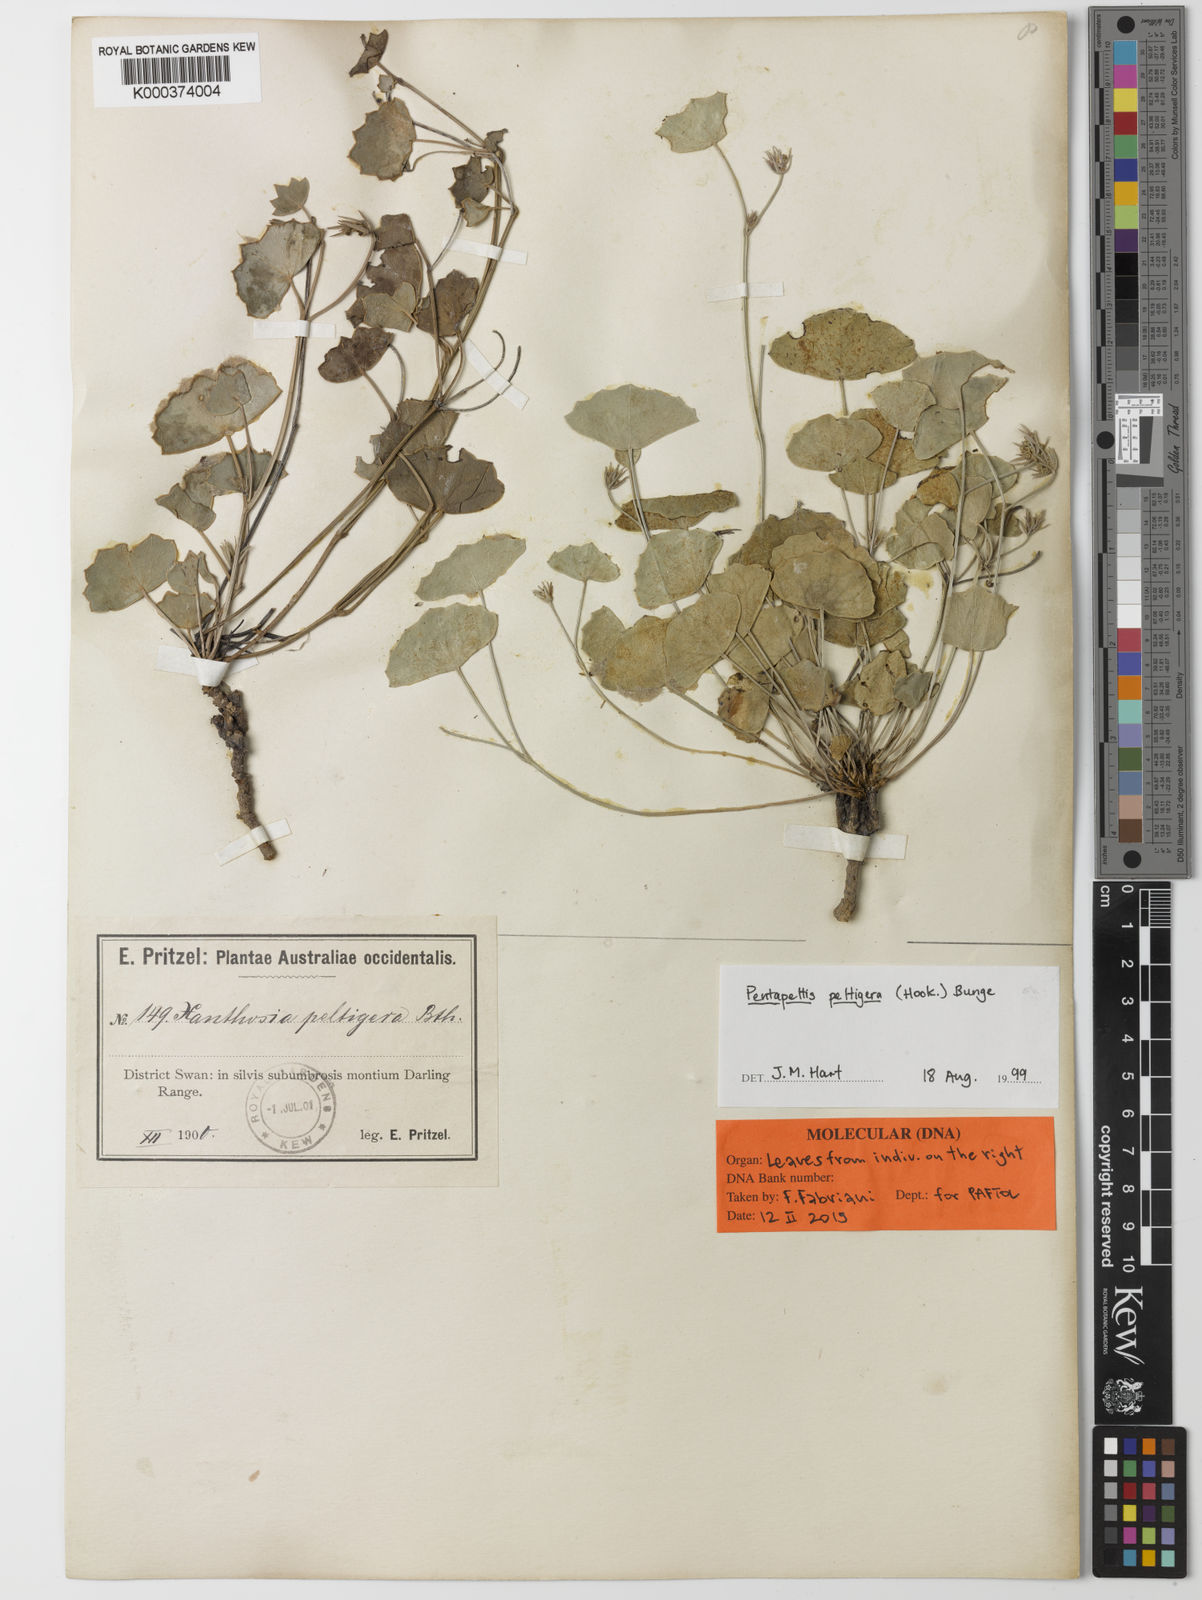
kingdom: Plantae
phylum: Tracheophyta
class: Magnoliopsida
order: Apiales
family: Apiaceae
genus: Pentapeltis
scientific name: Pentapeltis peltigera
